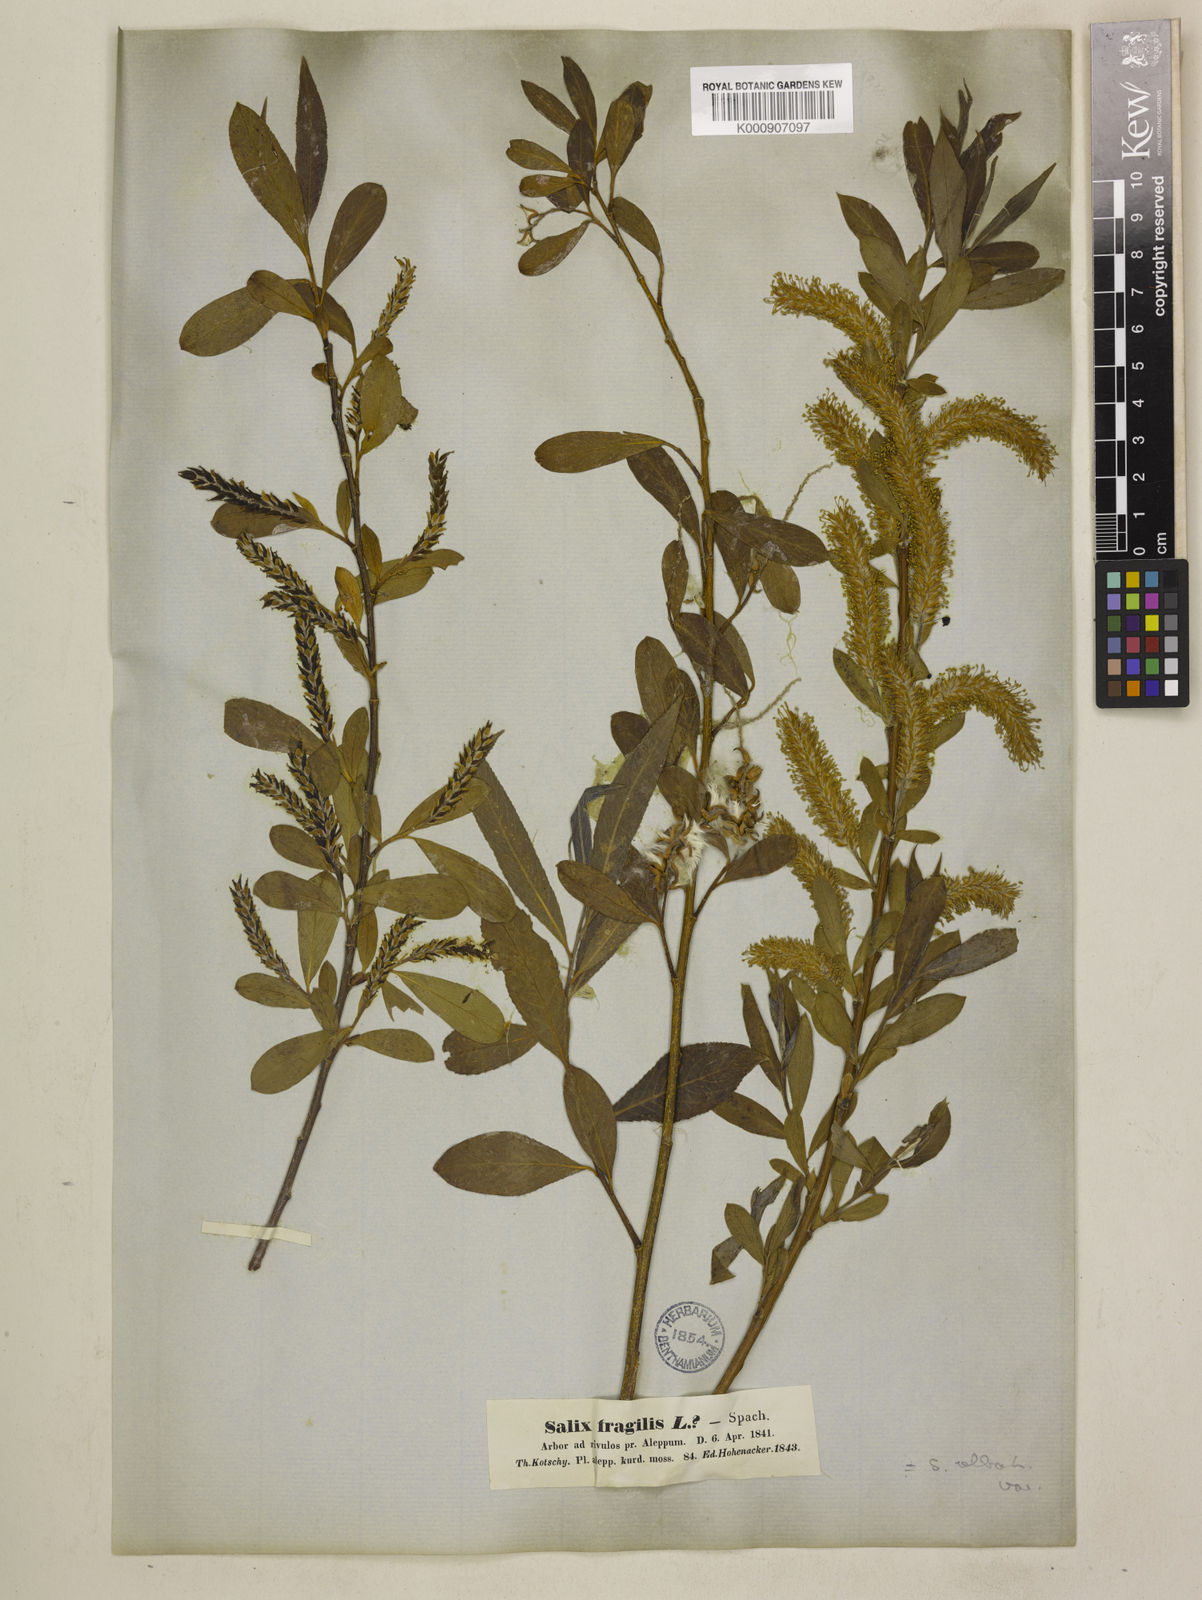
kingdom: Plantae
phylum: Tracheophyta
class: Magnoliopsida
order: Malpighiales
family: Salicaceae
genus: Salix
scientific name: Salix excelsa
